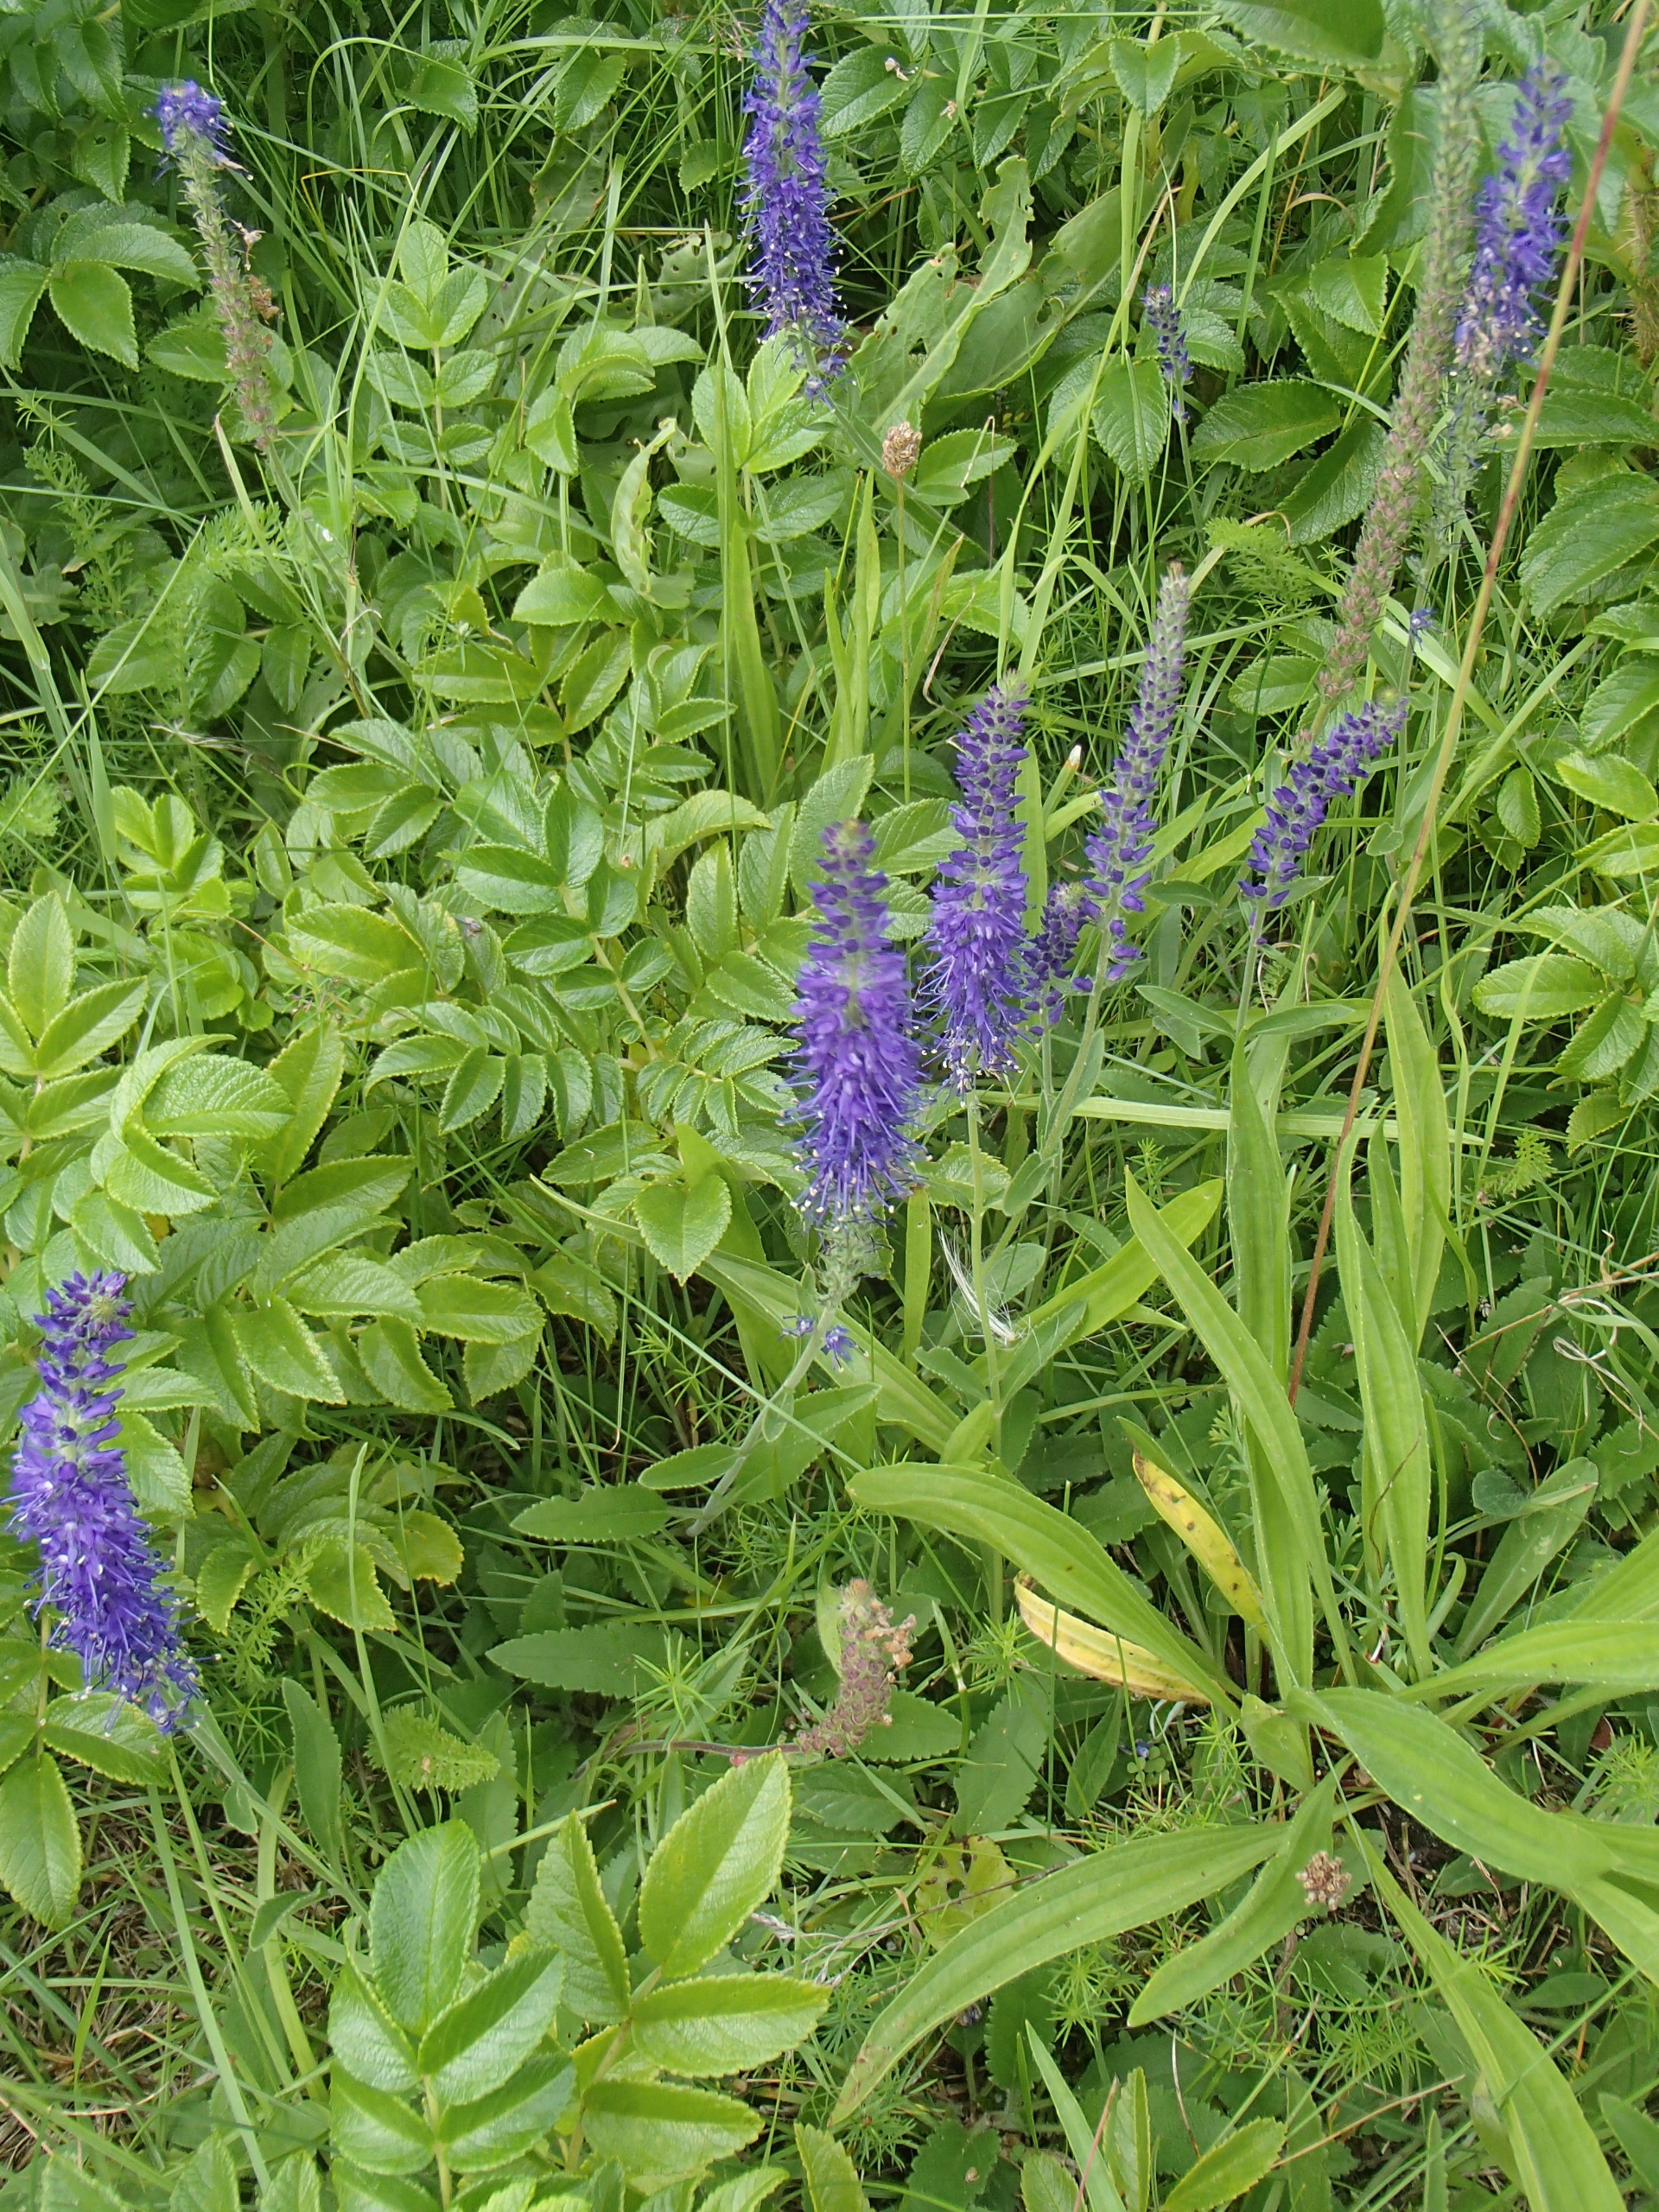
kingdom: Plantae
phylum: Tracheophyta
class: Magnoliopsida
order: Lamiales
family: Plantaginaceae
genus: Veronica
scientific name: Veronica spicata
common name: Aks-ærenpris
